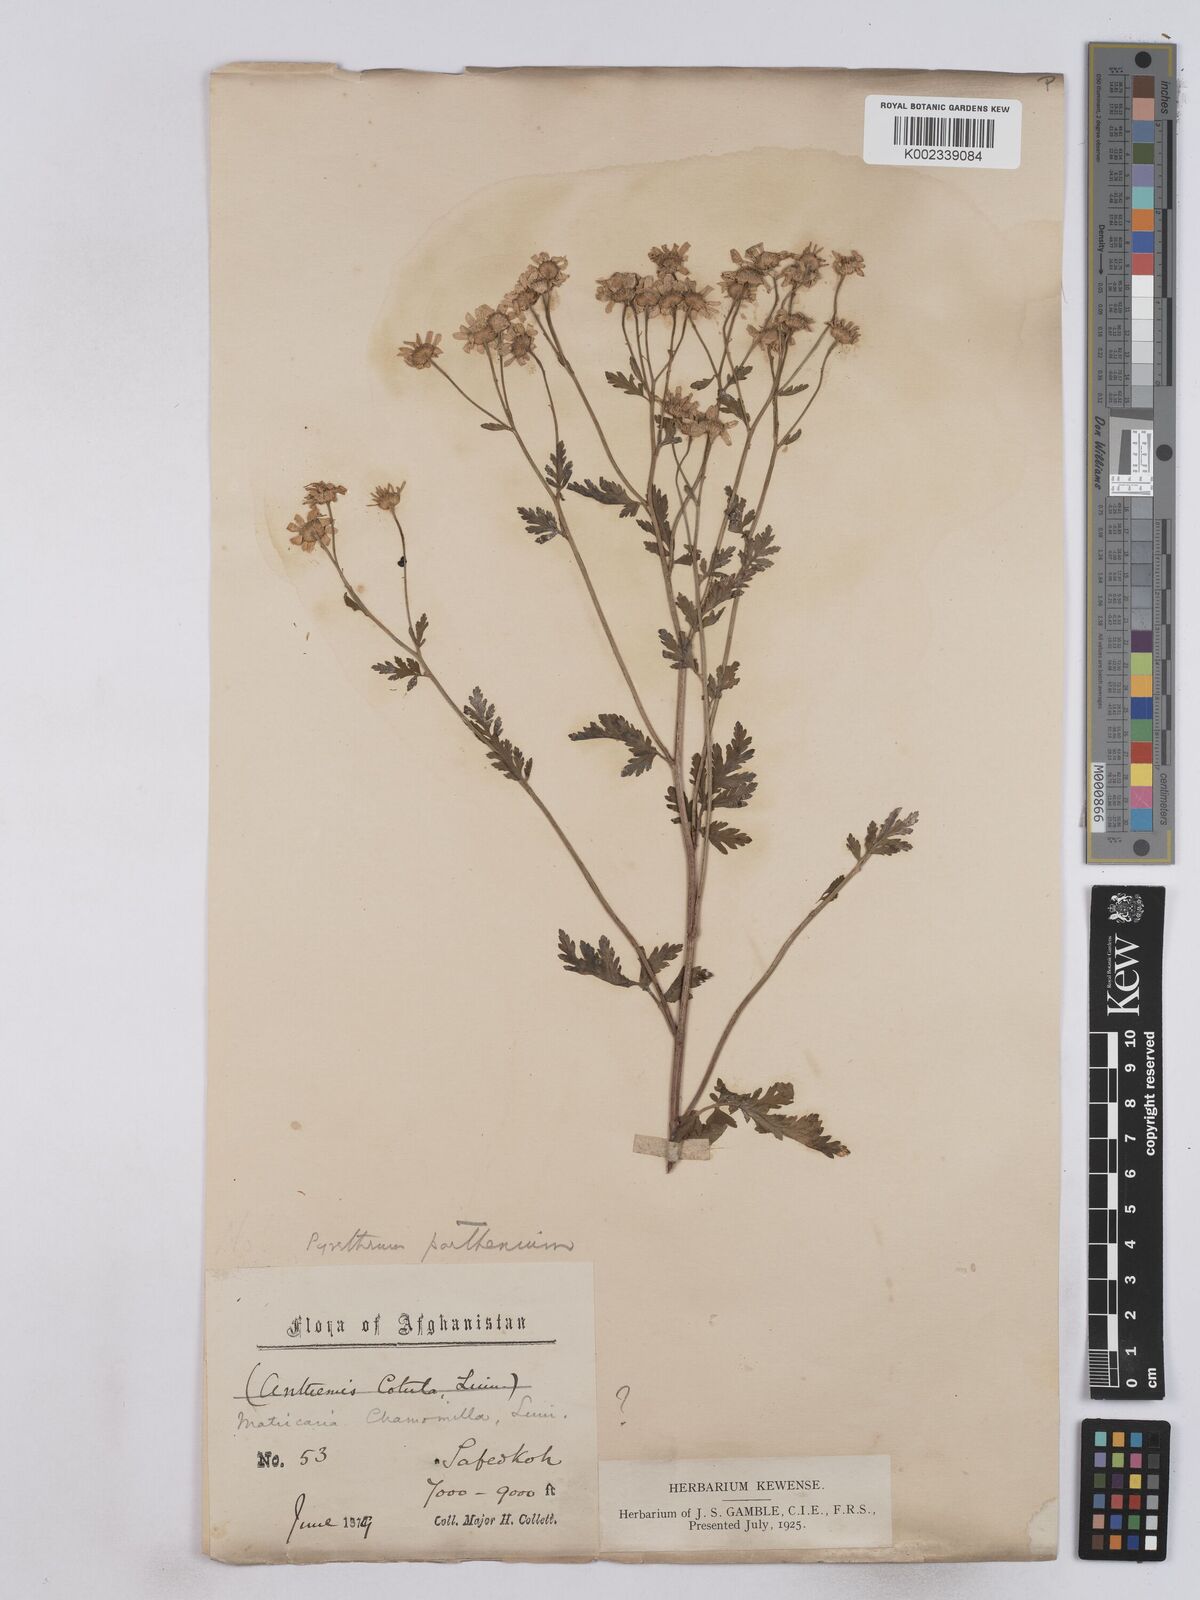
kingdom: Plantae
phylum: Tracheophyta
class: Magnoliopsida
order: Asterales
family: Asteraceae
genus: Tanacetum
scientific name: Tanacetum parthenium
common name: Feverfew
